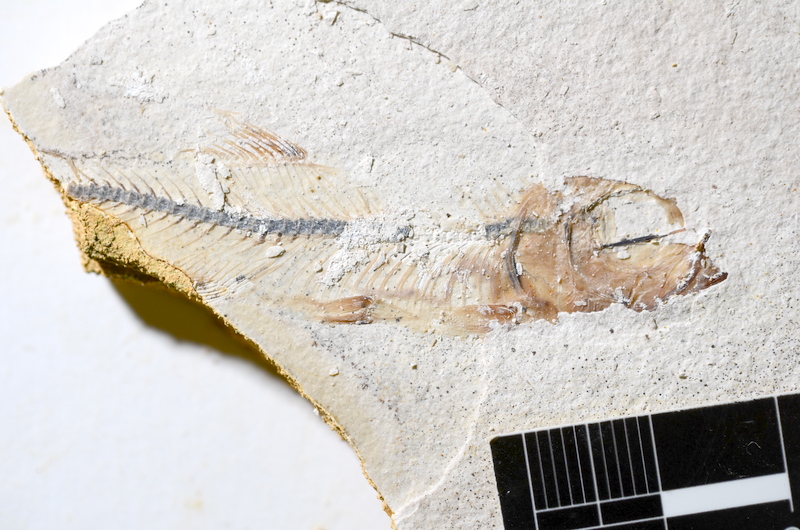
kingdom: Animalia
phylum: Chordata
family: Ascalaboidae
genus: Ebertichthys
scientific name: Ebertichthys ettlingensis
